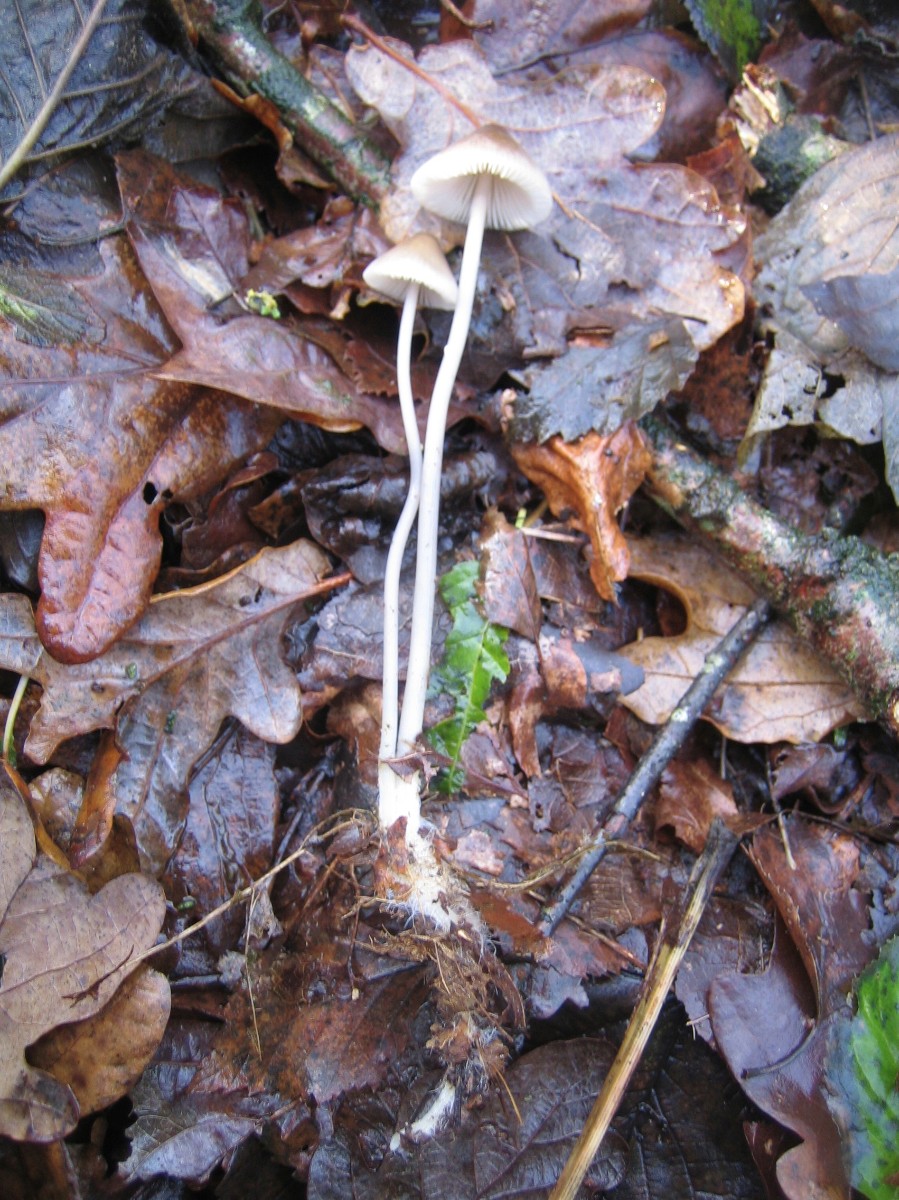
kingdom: Fungi
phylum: Basidiomycota
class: Agaricomycetes
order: Agaricales
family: Mycenaceae
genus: Mycena
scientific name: Mycena polygramma
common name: mangestribet huesvamp
